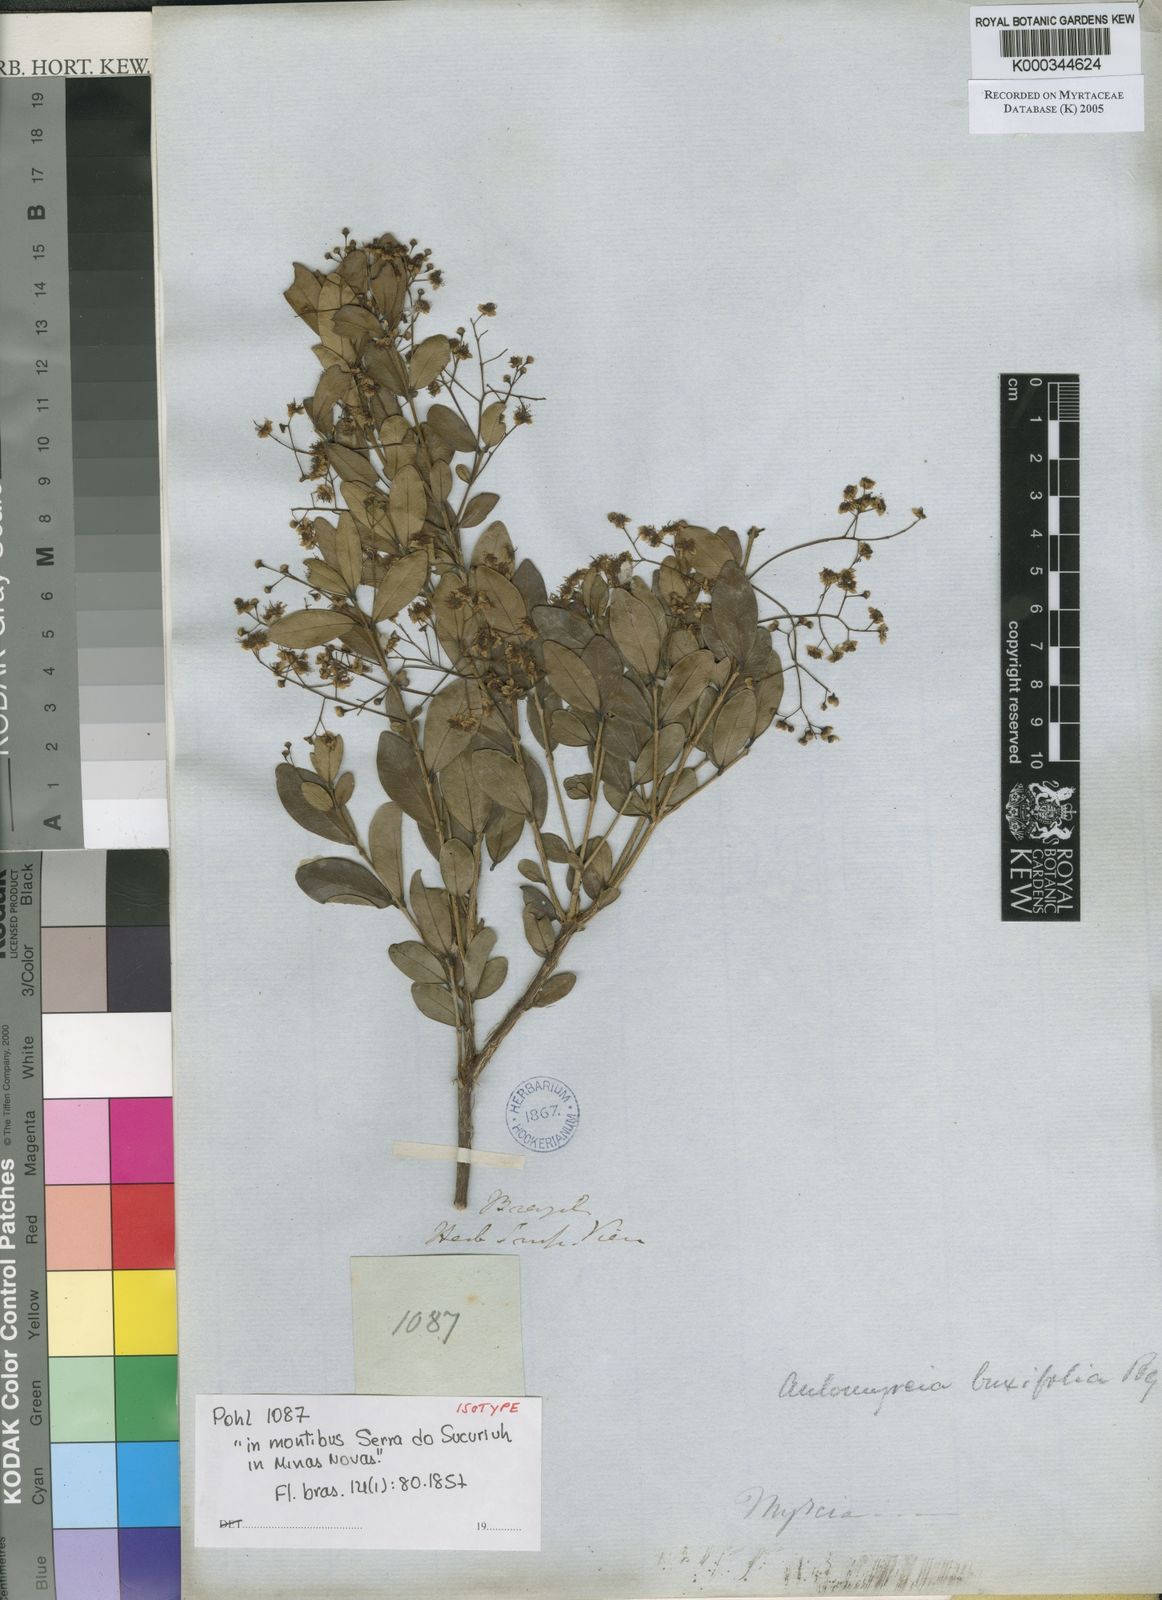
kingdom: Plantae
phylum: Tracheophyta
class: Magnoliopsida
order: Myrtales
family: Myrtaceae
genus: Myrcia
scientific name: Myrcia guianensis
